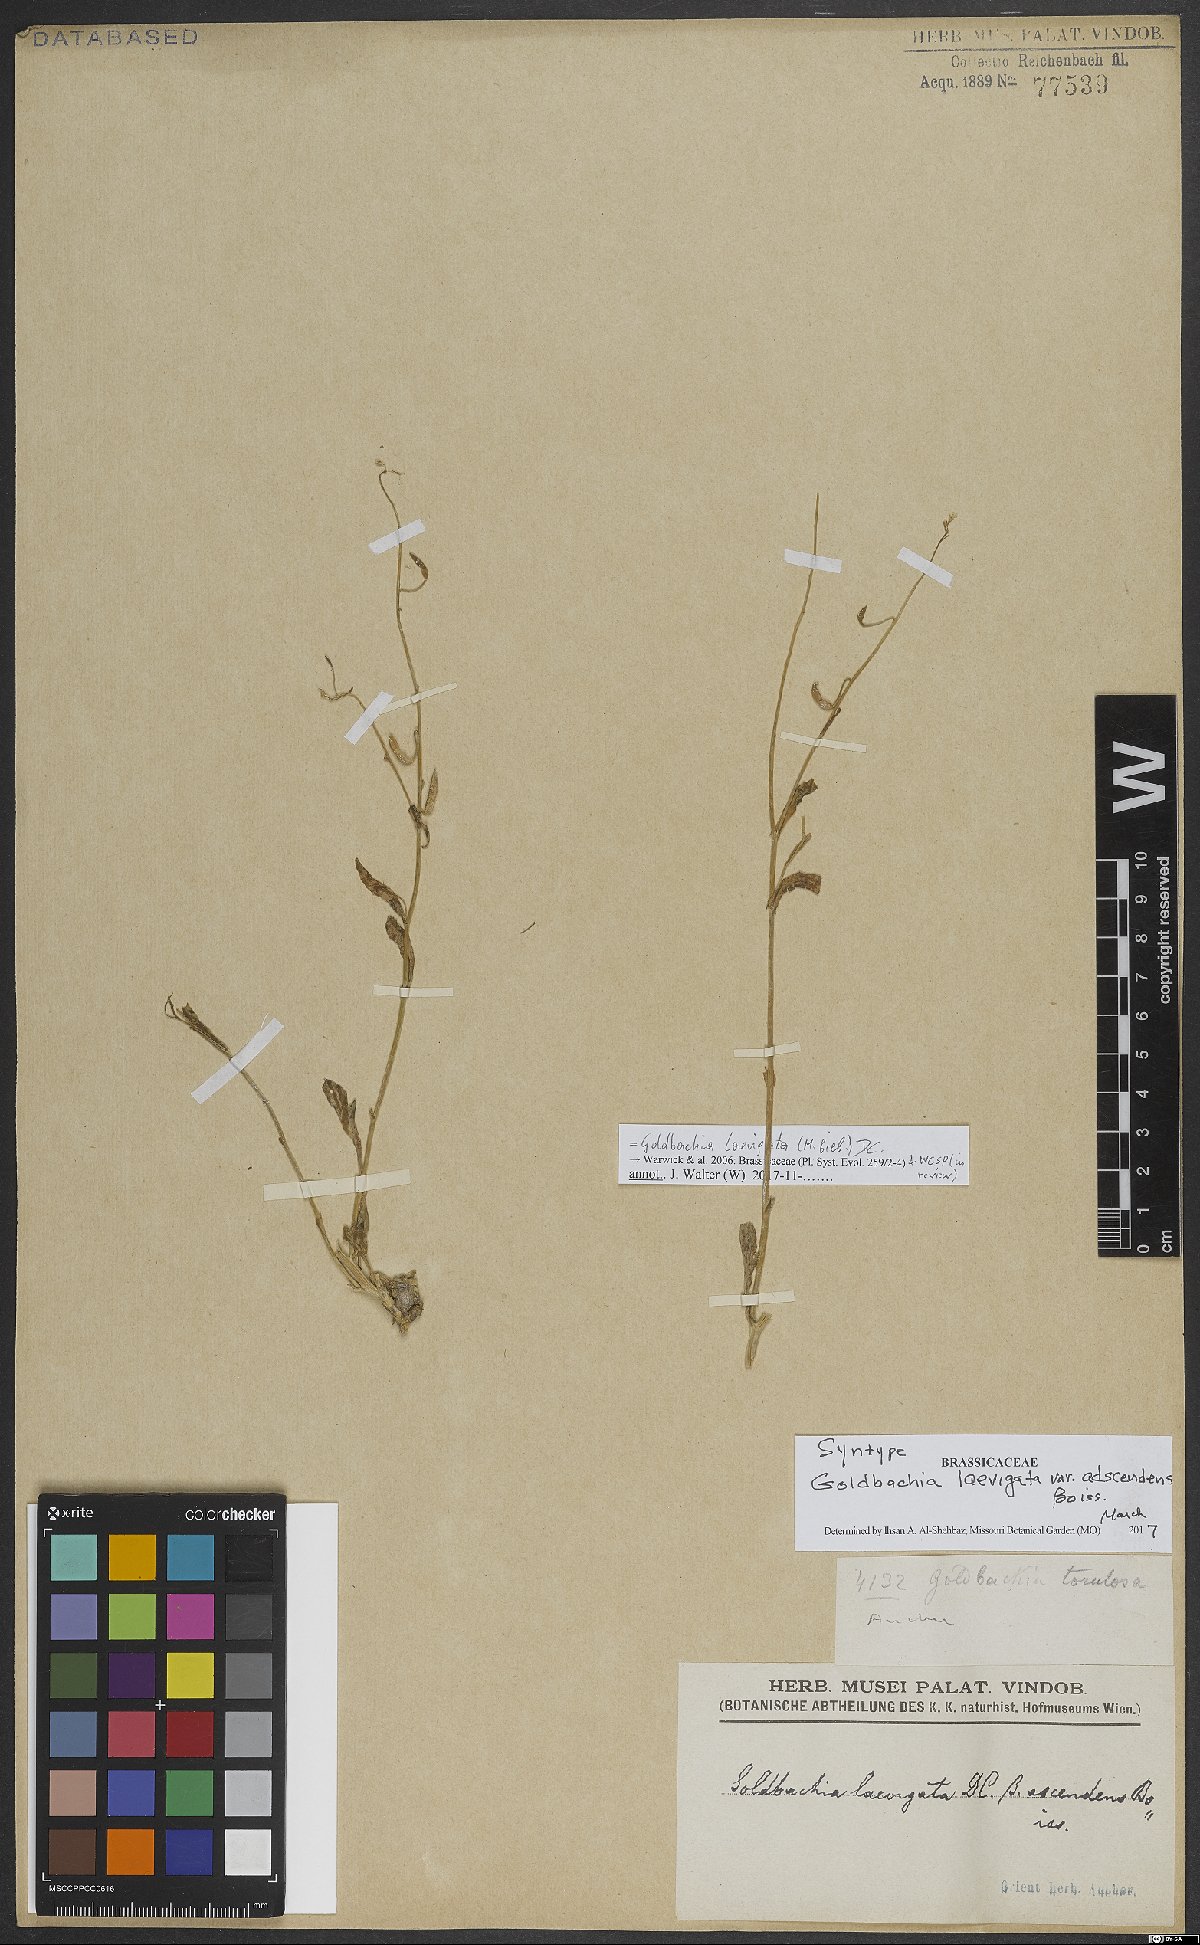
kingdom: Plantae
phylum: Tracheophyta
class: Magnoliopsida
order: Brassicales
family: Brassicaceae
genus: Goldbachia
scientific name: Goldbachia laevigata
